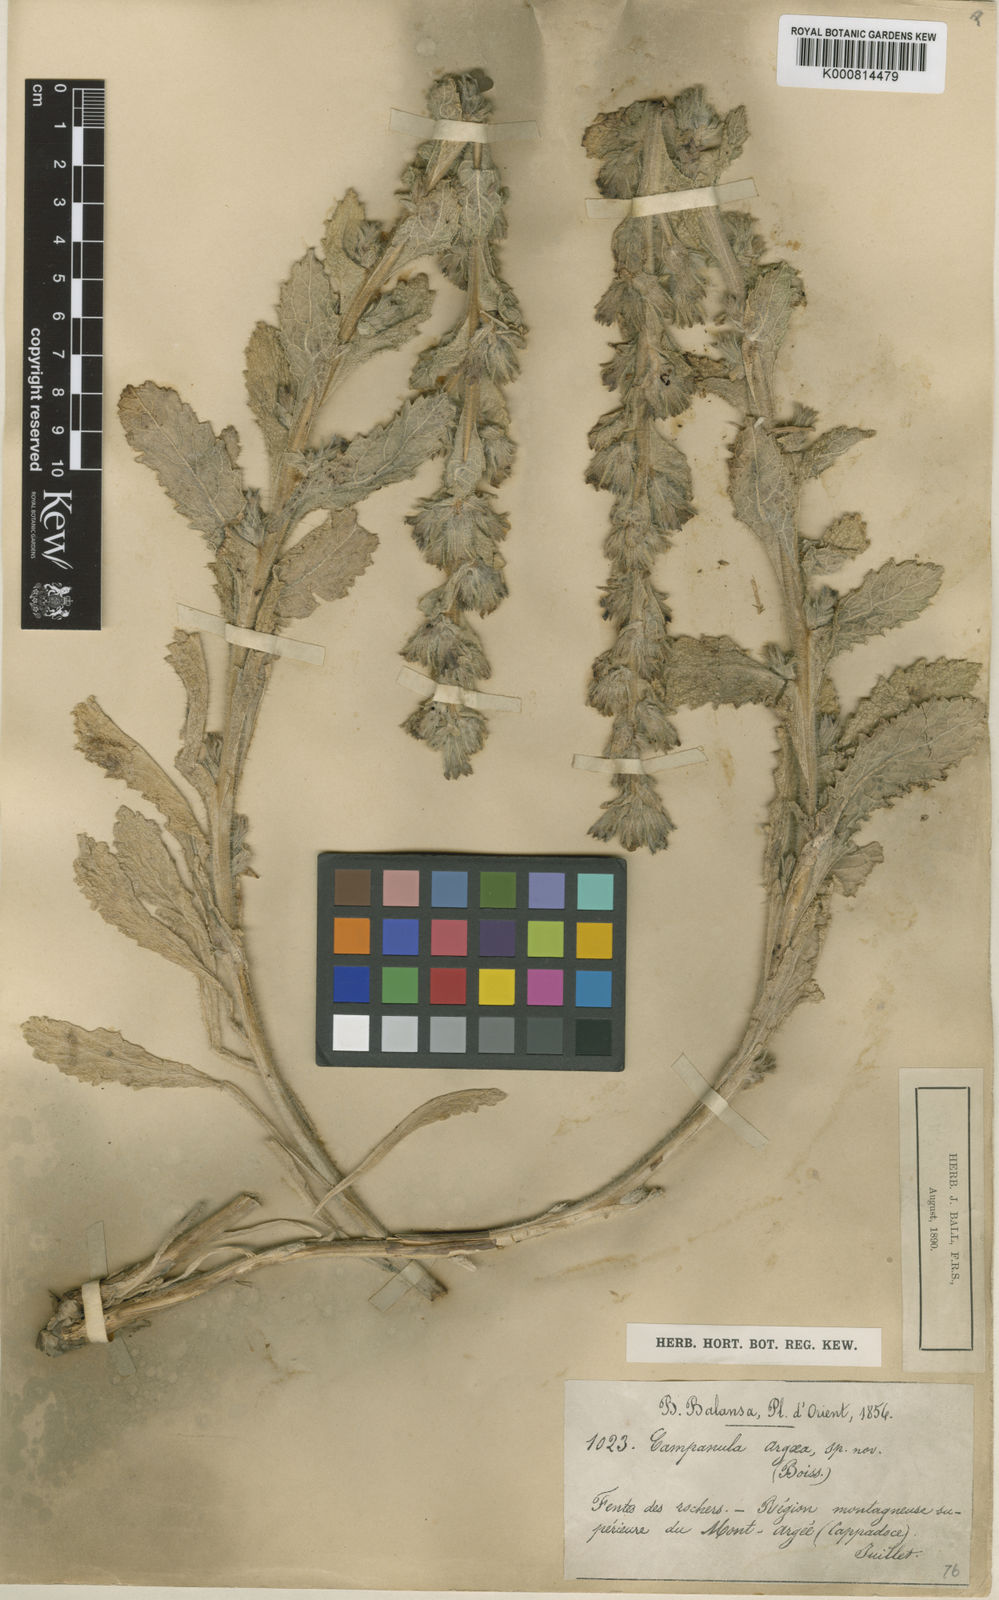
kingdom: Plantae
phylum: Tracheophyta
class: Magnoliopsida
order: Asterales
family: Campanulaceae
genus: Campanula
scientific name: Campanula ajugifolia
